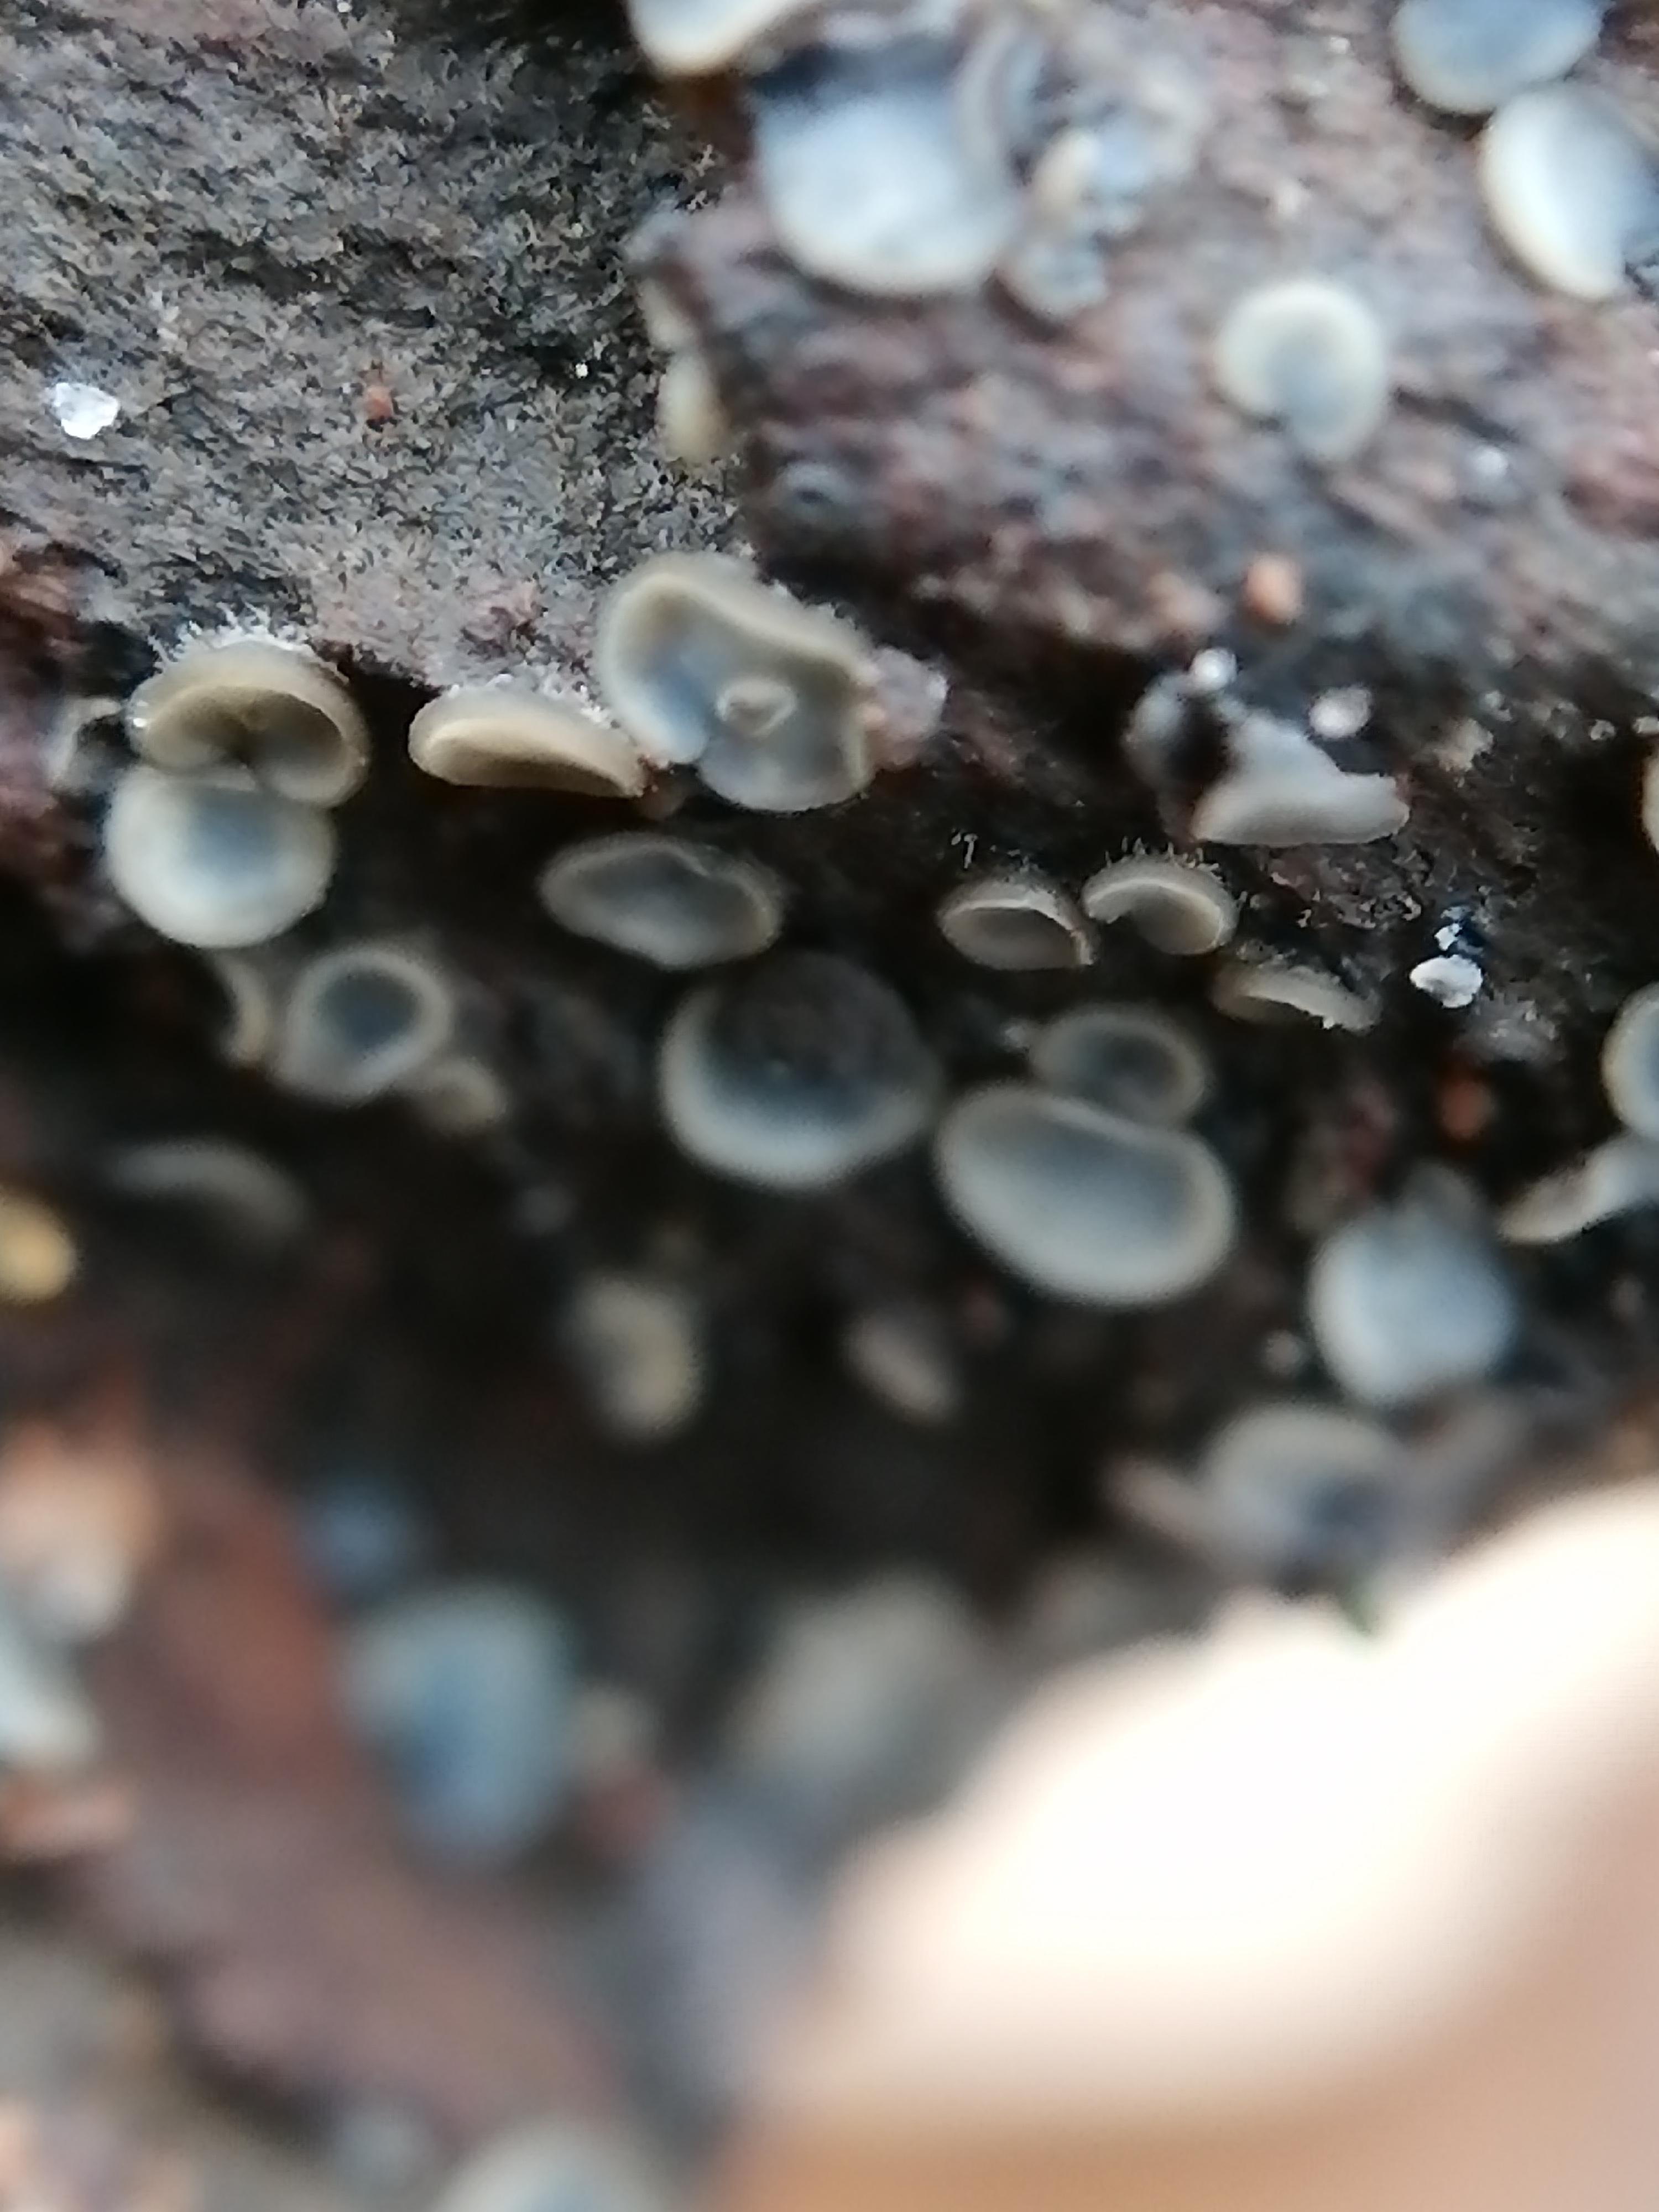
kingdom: Fungi
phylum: Ascomycota
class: Leotiomycetes
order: Helotiales
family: Mollisiaceae
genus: Mollisia
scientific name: Mollisia
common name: gråskive
